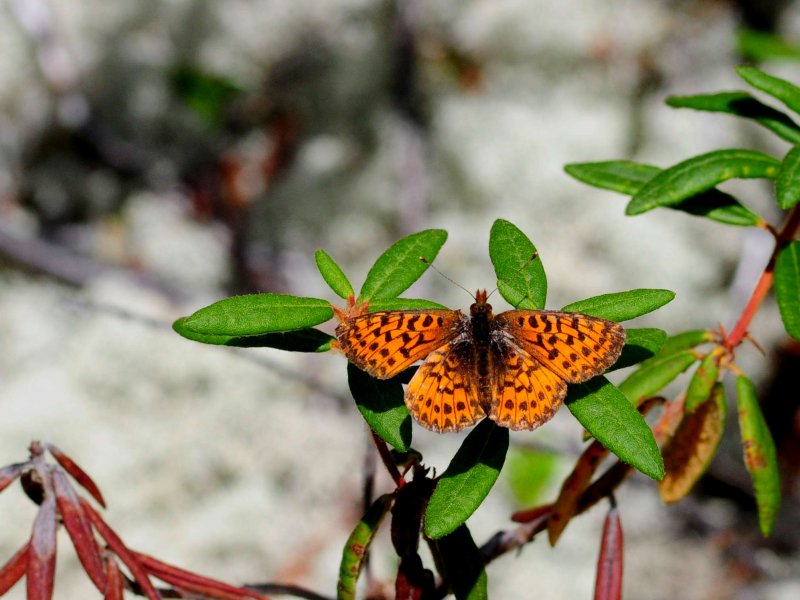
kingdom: Animalia
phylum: Arthropoda
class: Insecta
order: Lepidoptera
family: Nymphalidae
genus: Boloria
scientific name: Boloria chariclea
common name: Arctic Fritillary
